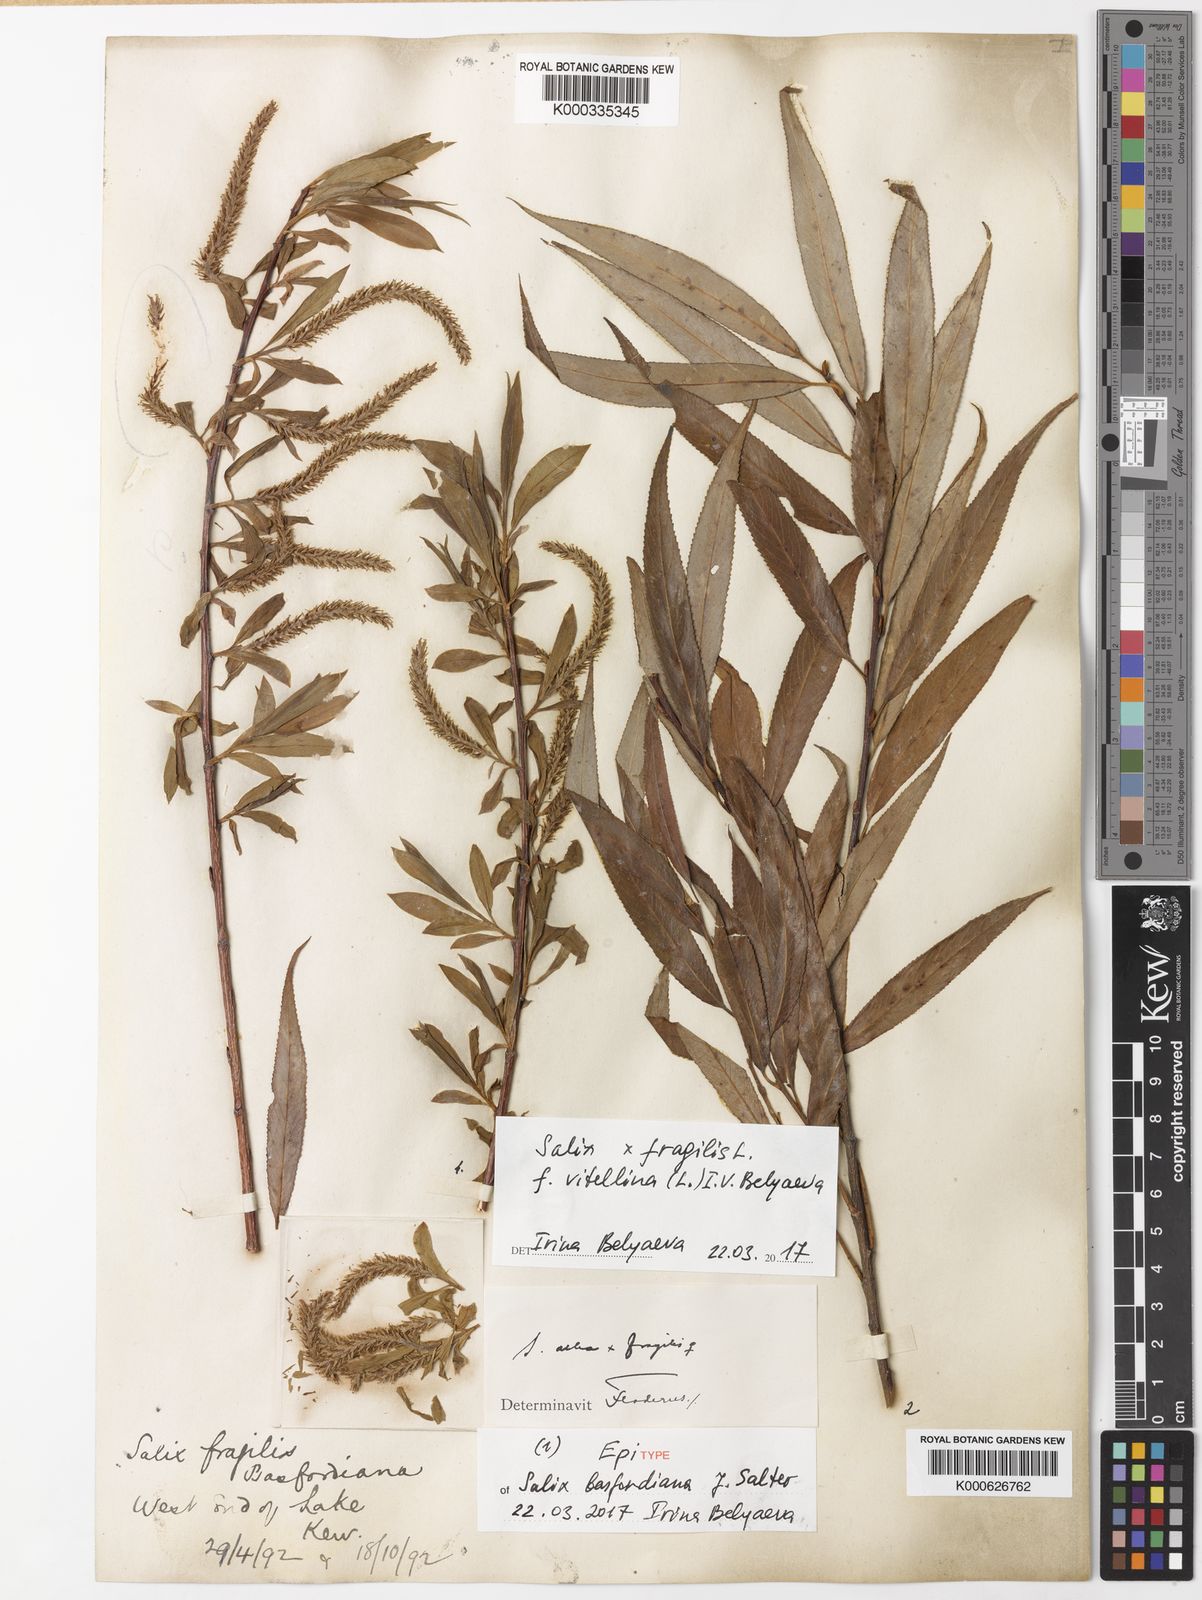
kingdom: Plantae
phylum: Tracheophyta
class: Magnoliopsida
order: Malpighiales
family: Salicaceae
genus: Salix
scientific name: Salix rubens
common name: Hybrid crack willow
